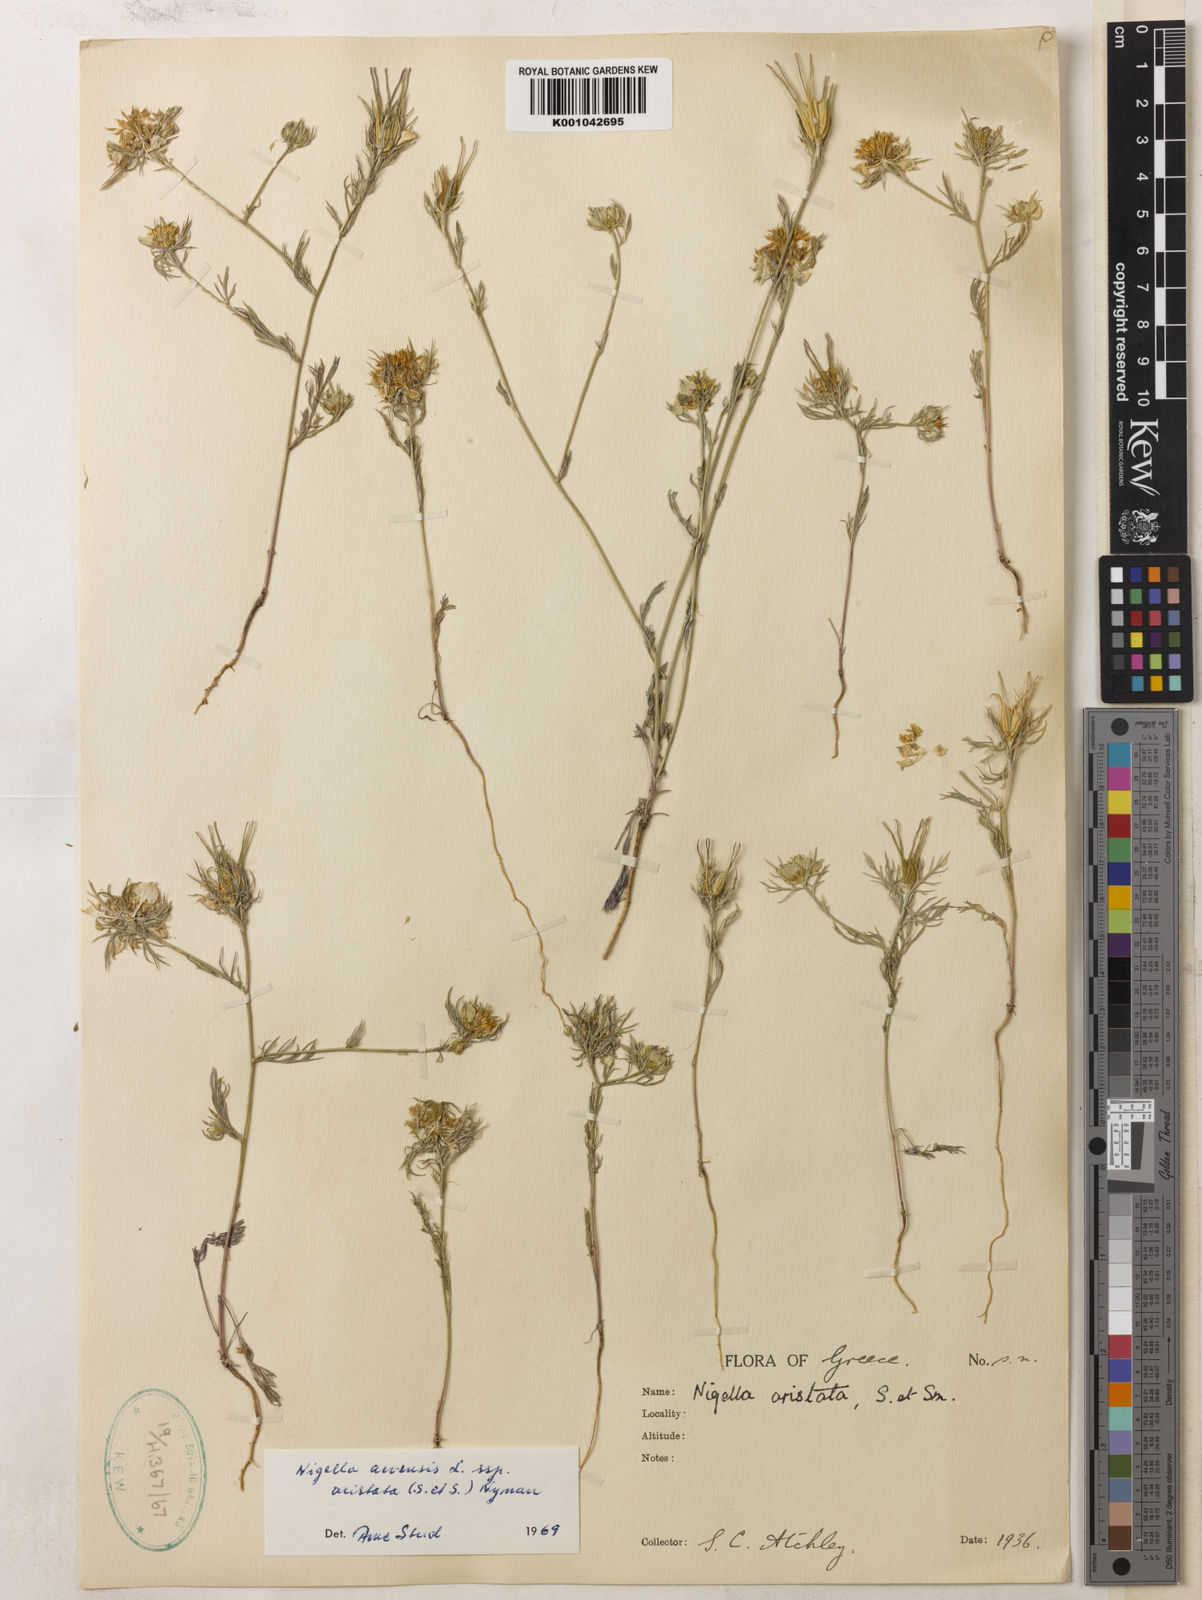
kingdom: Plantae
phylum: Tracheophyta
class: Magnoliopsida
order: Ranunculales
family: Ranunculaceae
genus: Nigella
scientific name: Nigella arvensis
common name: Wild fennel-flower
